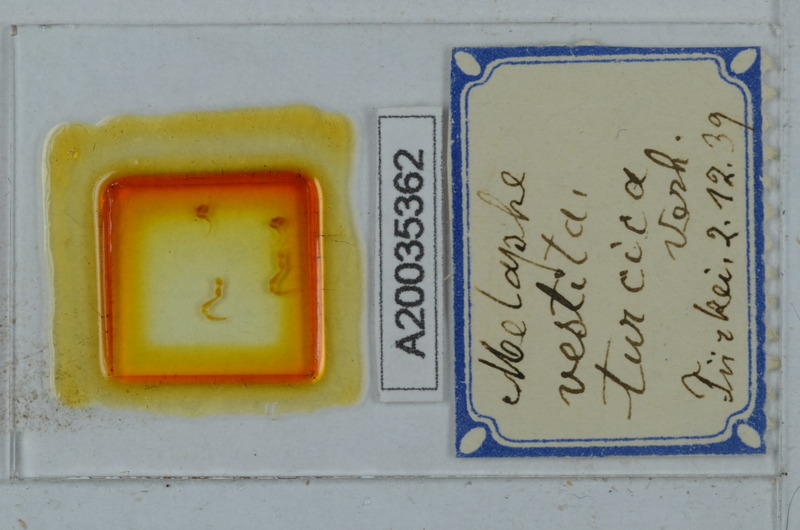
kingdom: Animalia
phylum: Arthropoda
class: Diplopoda
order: Polydesmida
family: Xystodesmidae
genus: Melaphe
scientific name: Melaphe vestita
